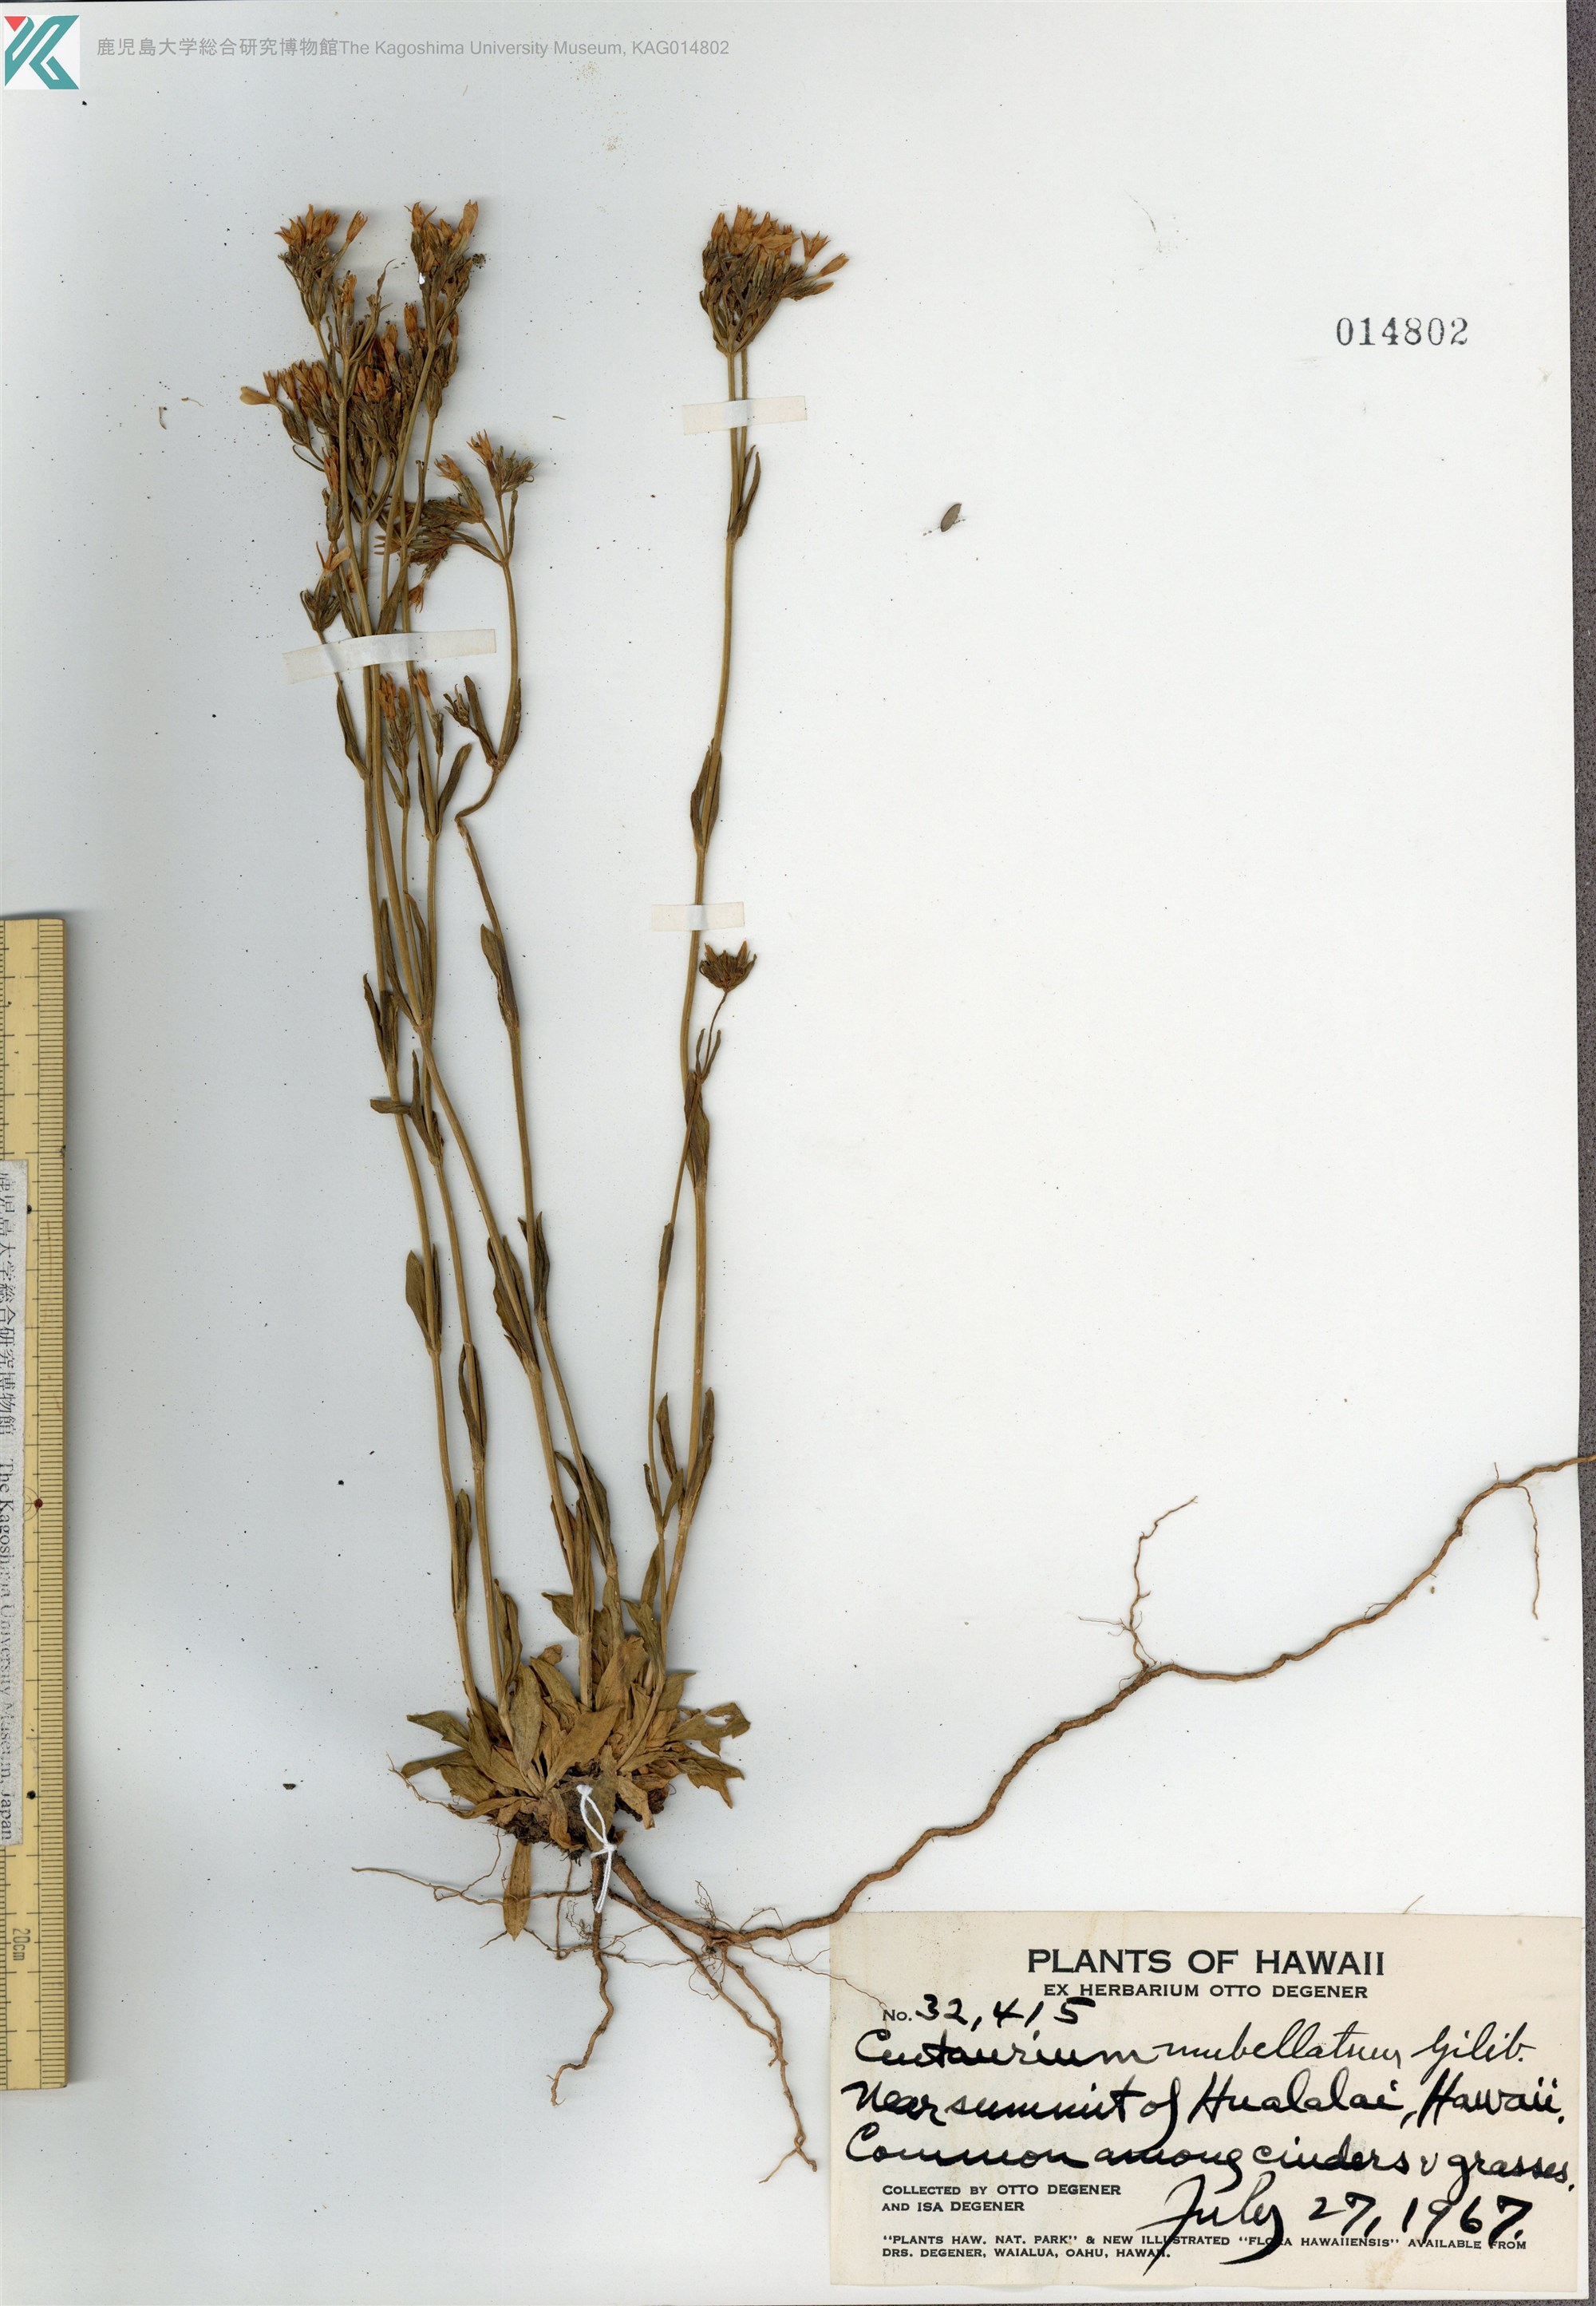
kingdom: Plantae
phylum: Tracheophyta
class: Magnoliopsida
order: Gentianales
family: Gentianaceae
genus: Centaurium
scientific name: Centaurium erythraea
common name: Common centaury
